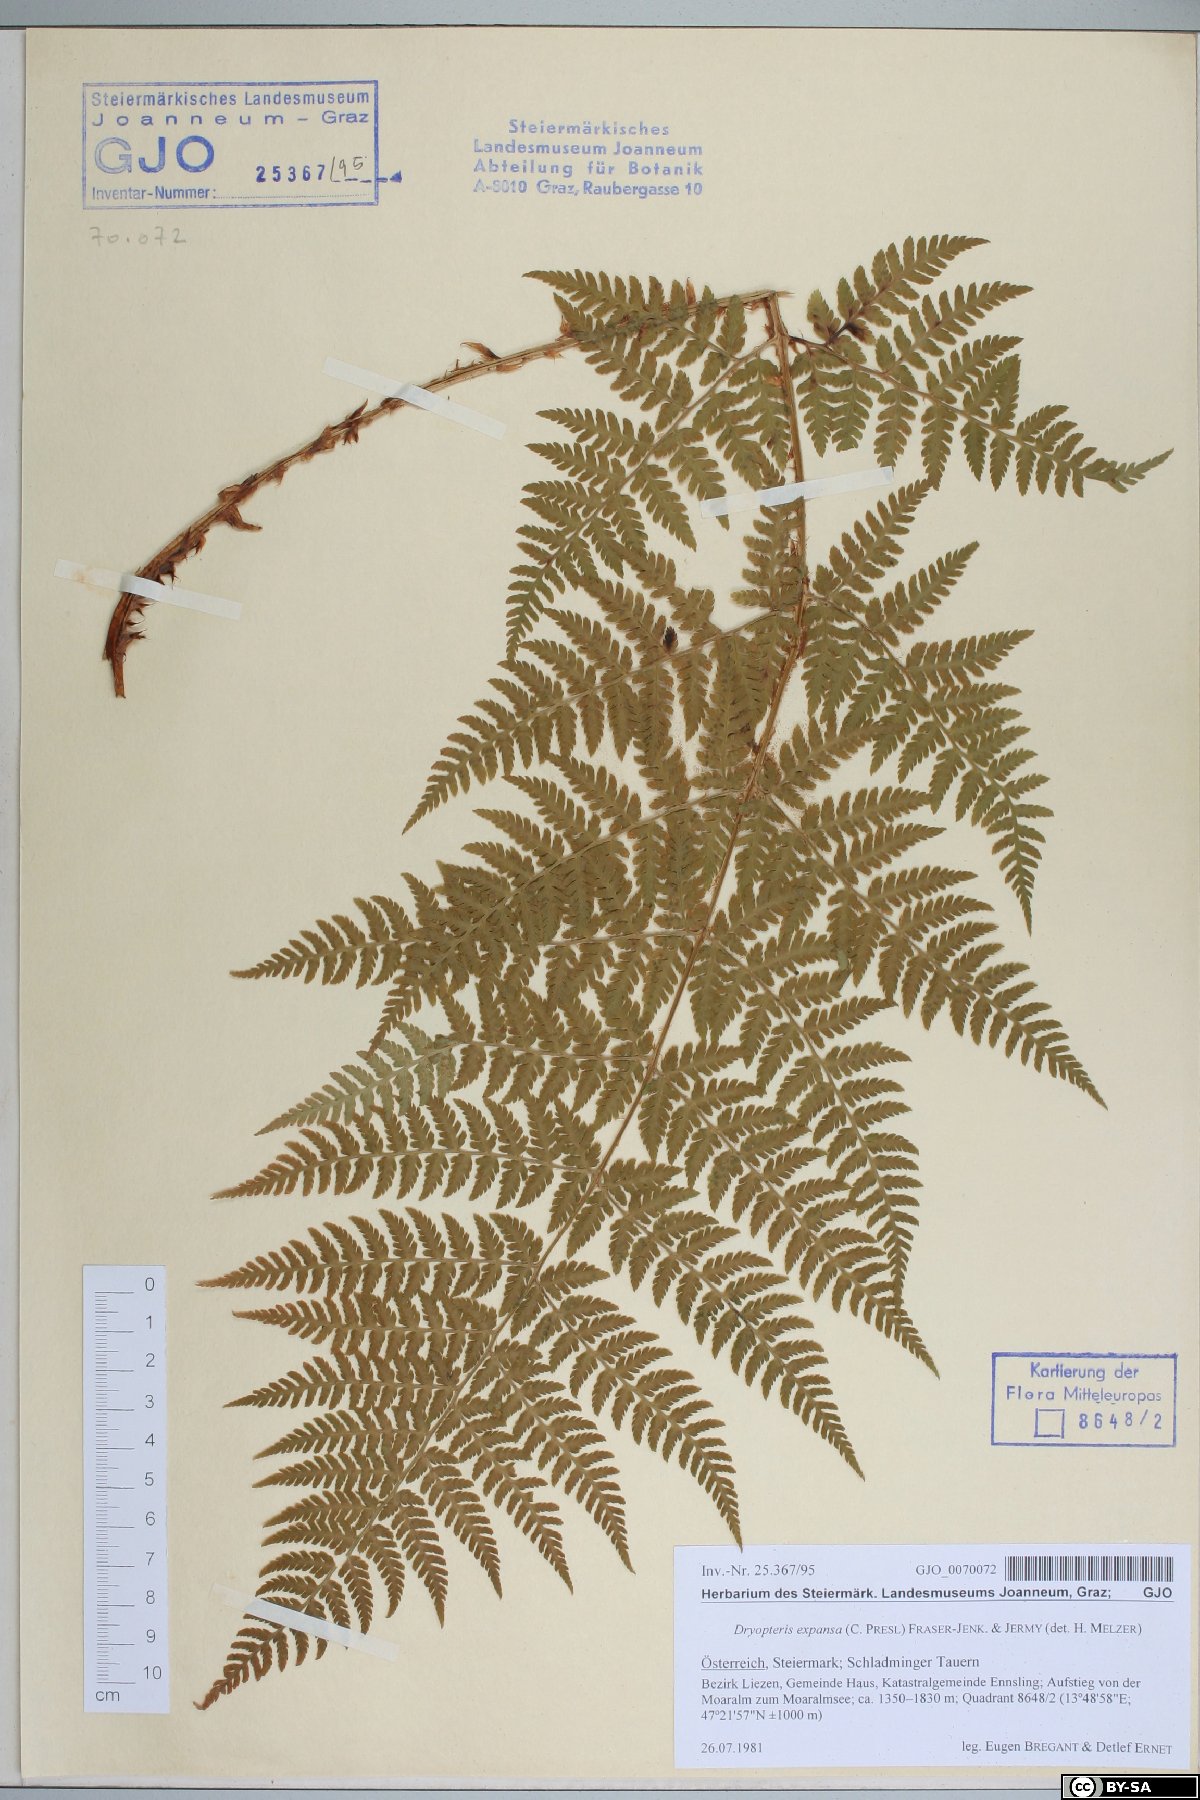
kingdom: Plantae
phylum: Tracheophyta
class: Polypodiopsida
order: Polypodiales
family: Dryopteridaceae
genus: Dryopteris
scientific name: Dryopteris expansa
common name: Northern buckler fern
